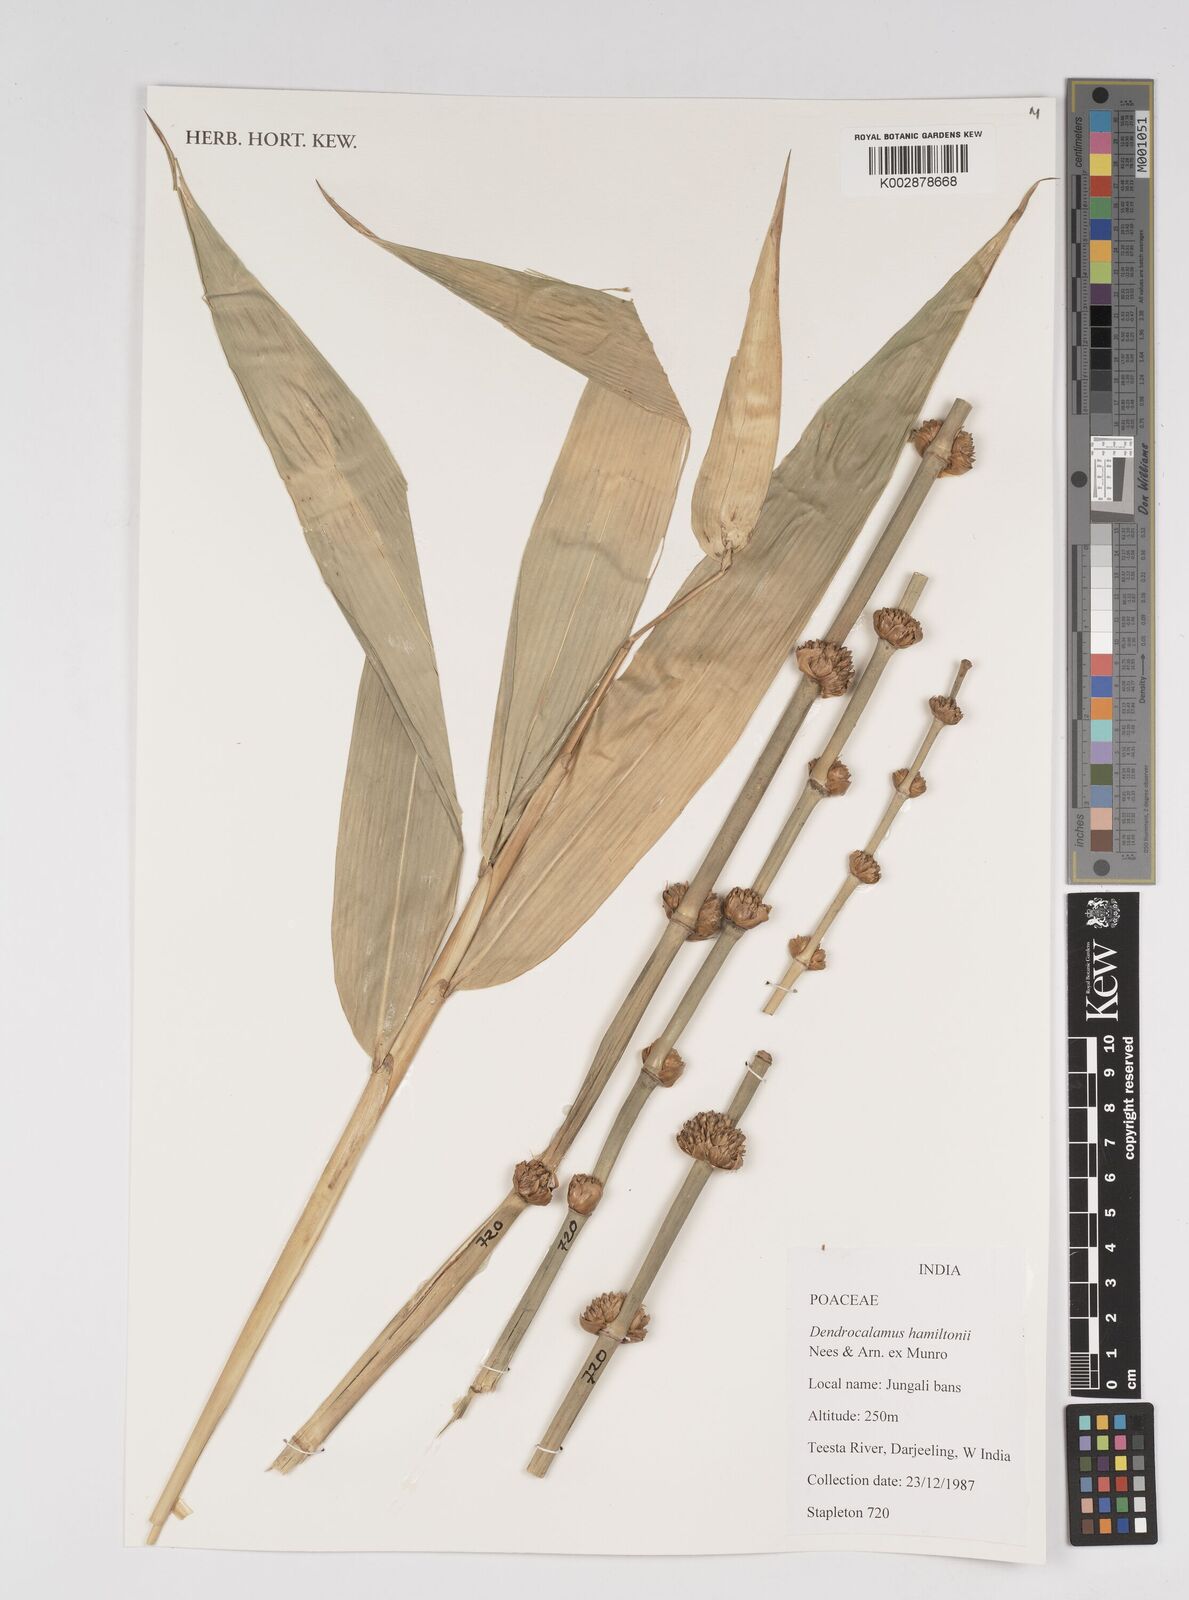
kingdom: Plantae
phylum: Tracheophyta
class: Liliopsida
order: Poales
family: Poaceae
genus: Dendrocalamus
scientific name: Dendrocalamus hamiltonii
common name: Tama bamboo
